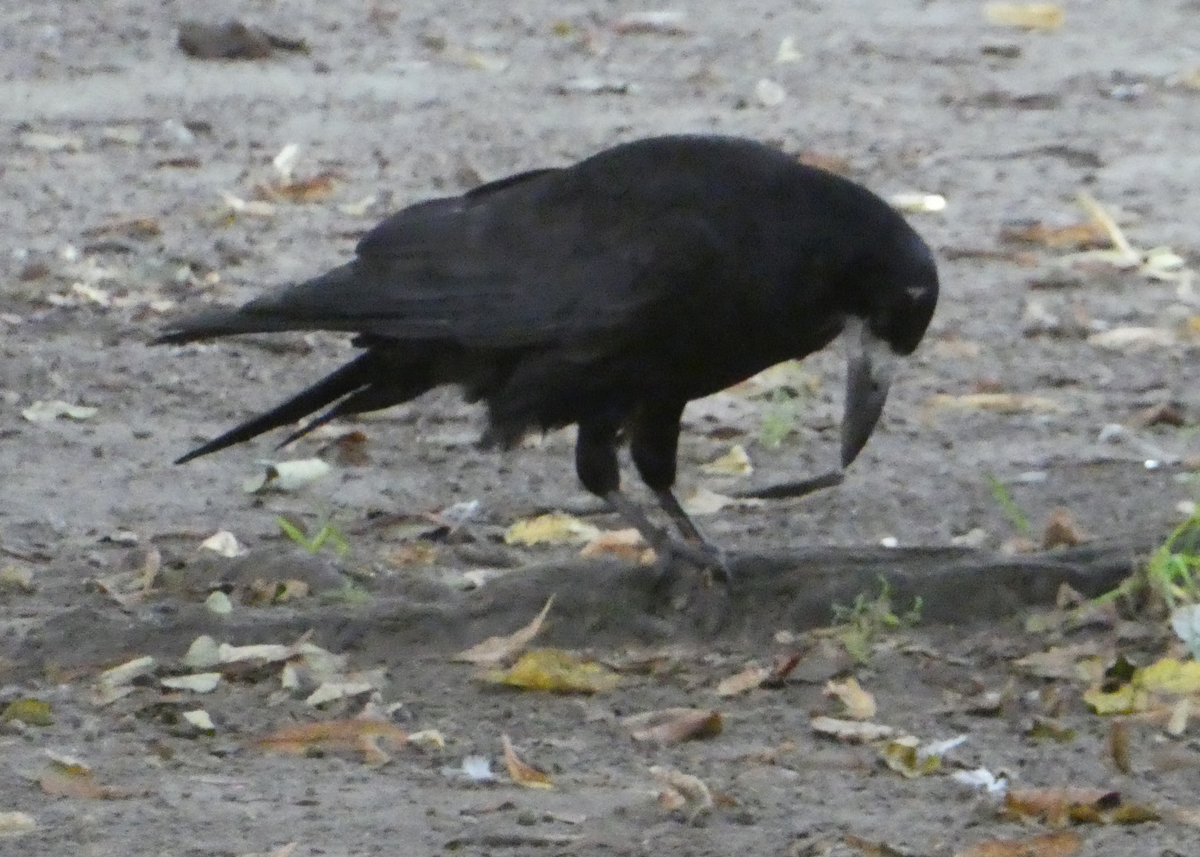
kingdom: Animalia
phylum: Chordata
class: Aves
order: Passeriformes
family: Corvidae
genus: Corvus
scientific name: Corvus frugilegus
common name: Rook
